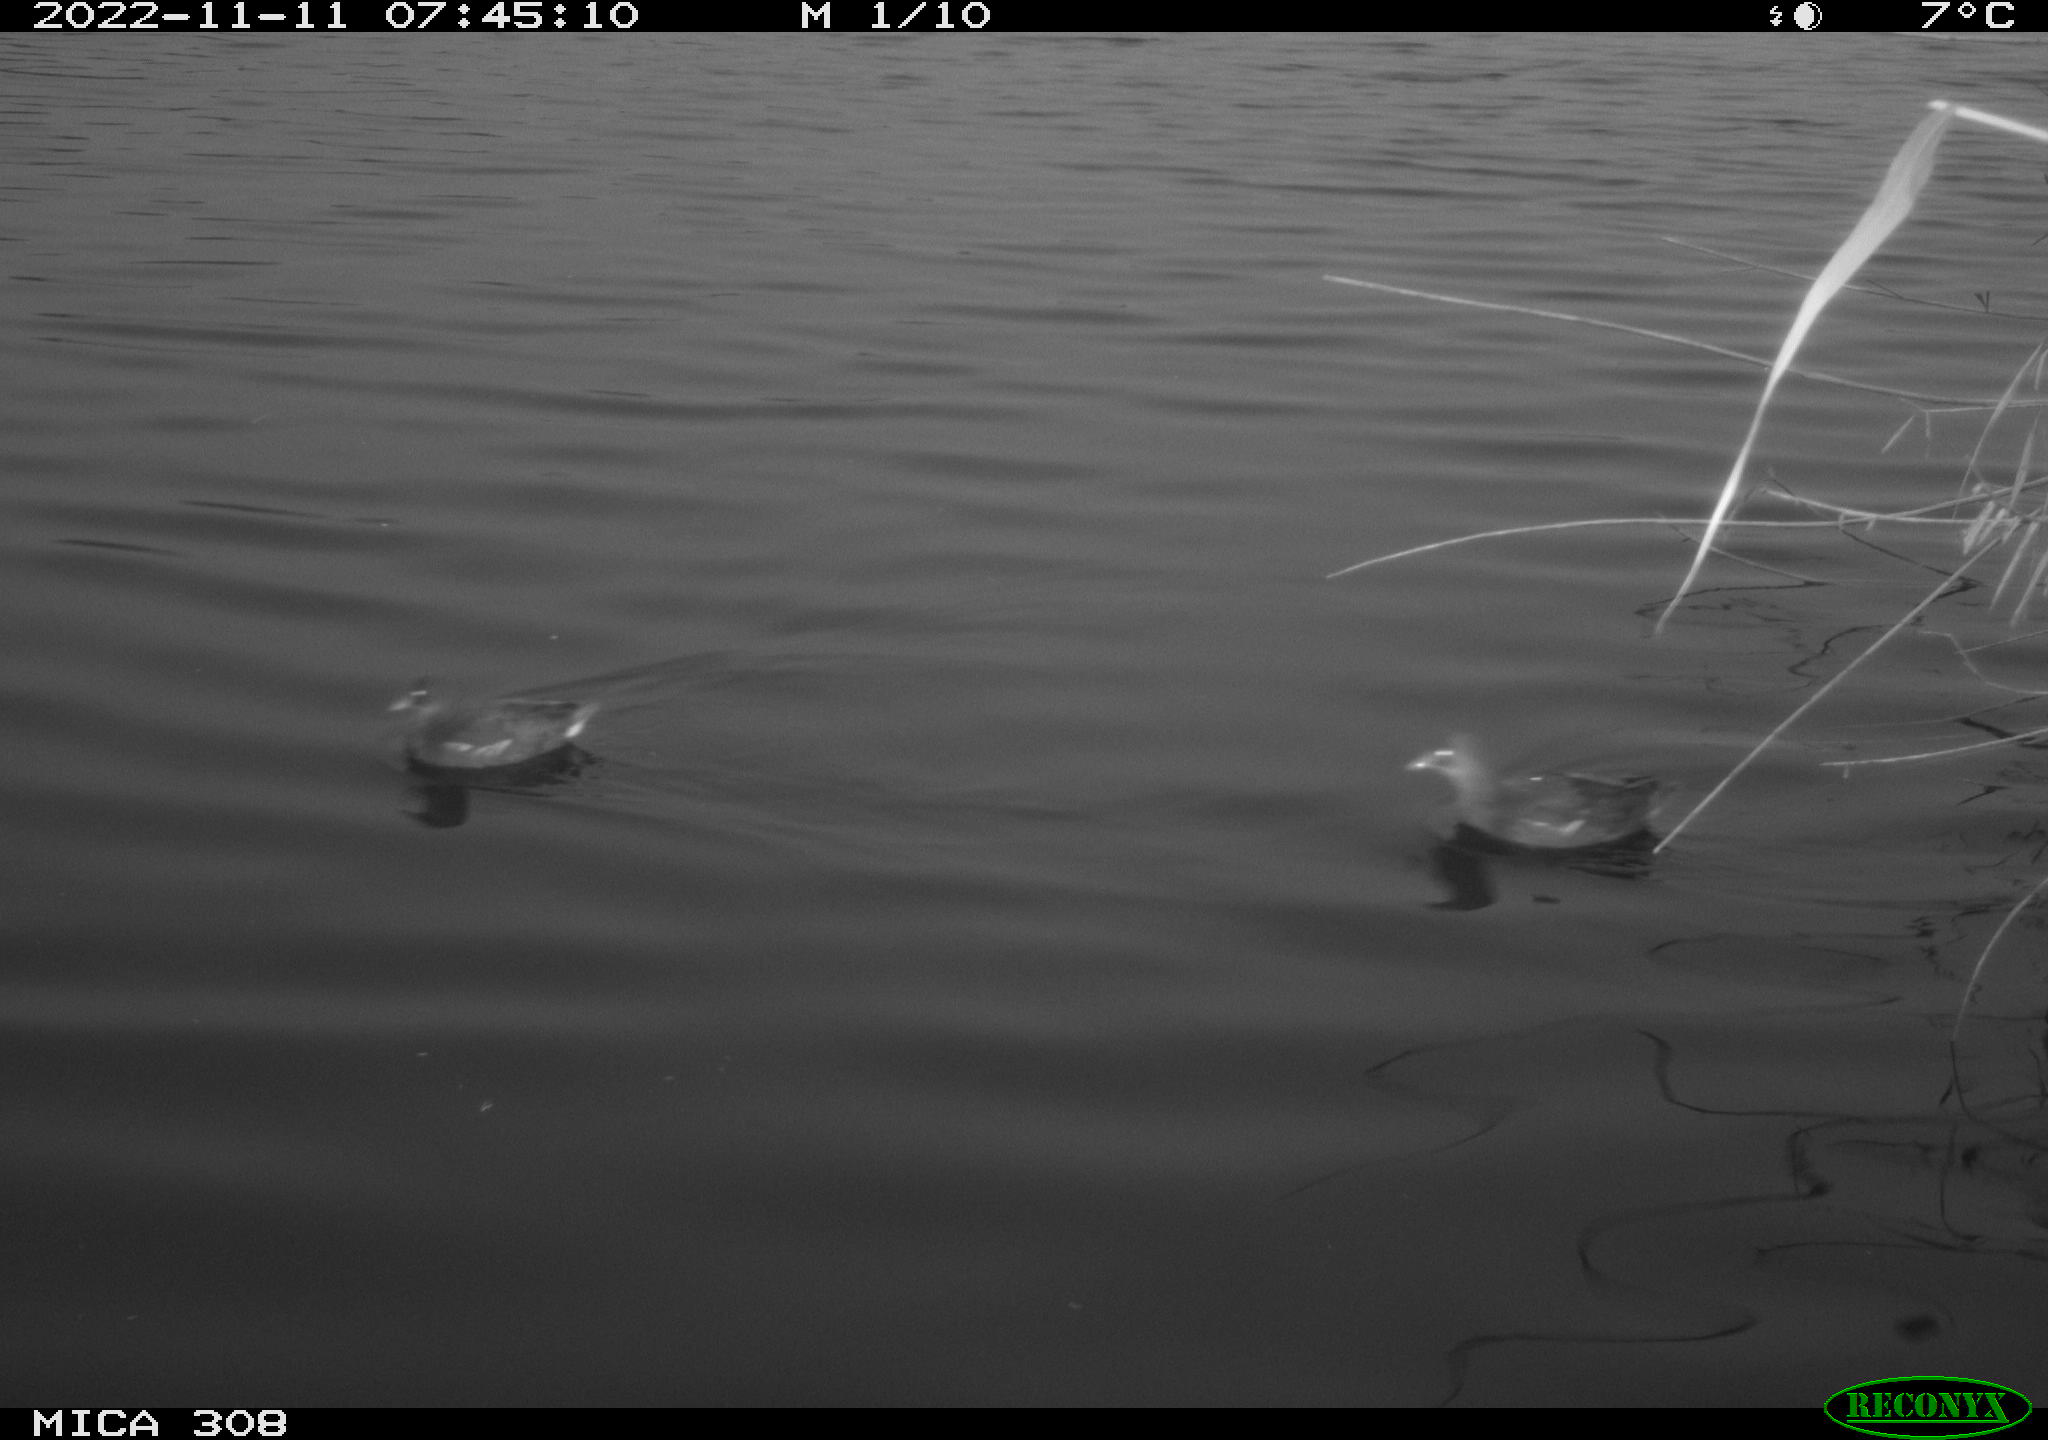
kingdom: Animalia
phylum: Chordata
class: Aves
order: Gruiformes
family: Rallidae
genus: Gallinula
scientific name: Gallinula chloropus
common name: Common moorhen
